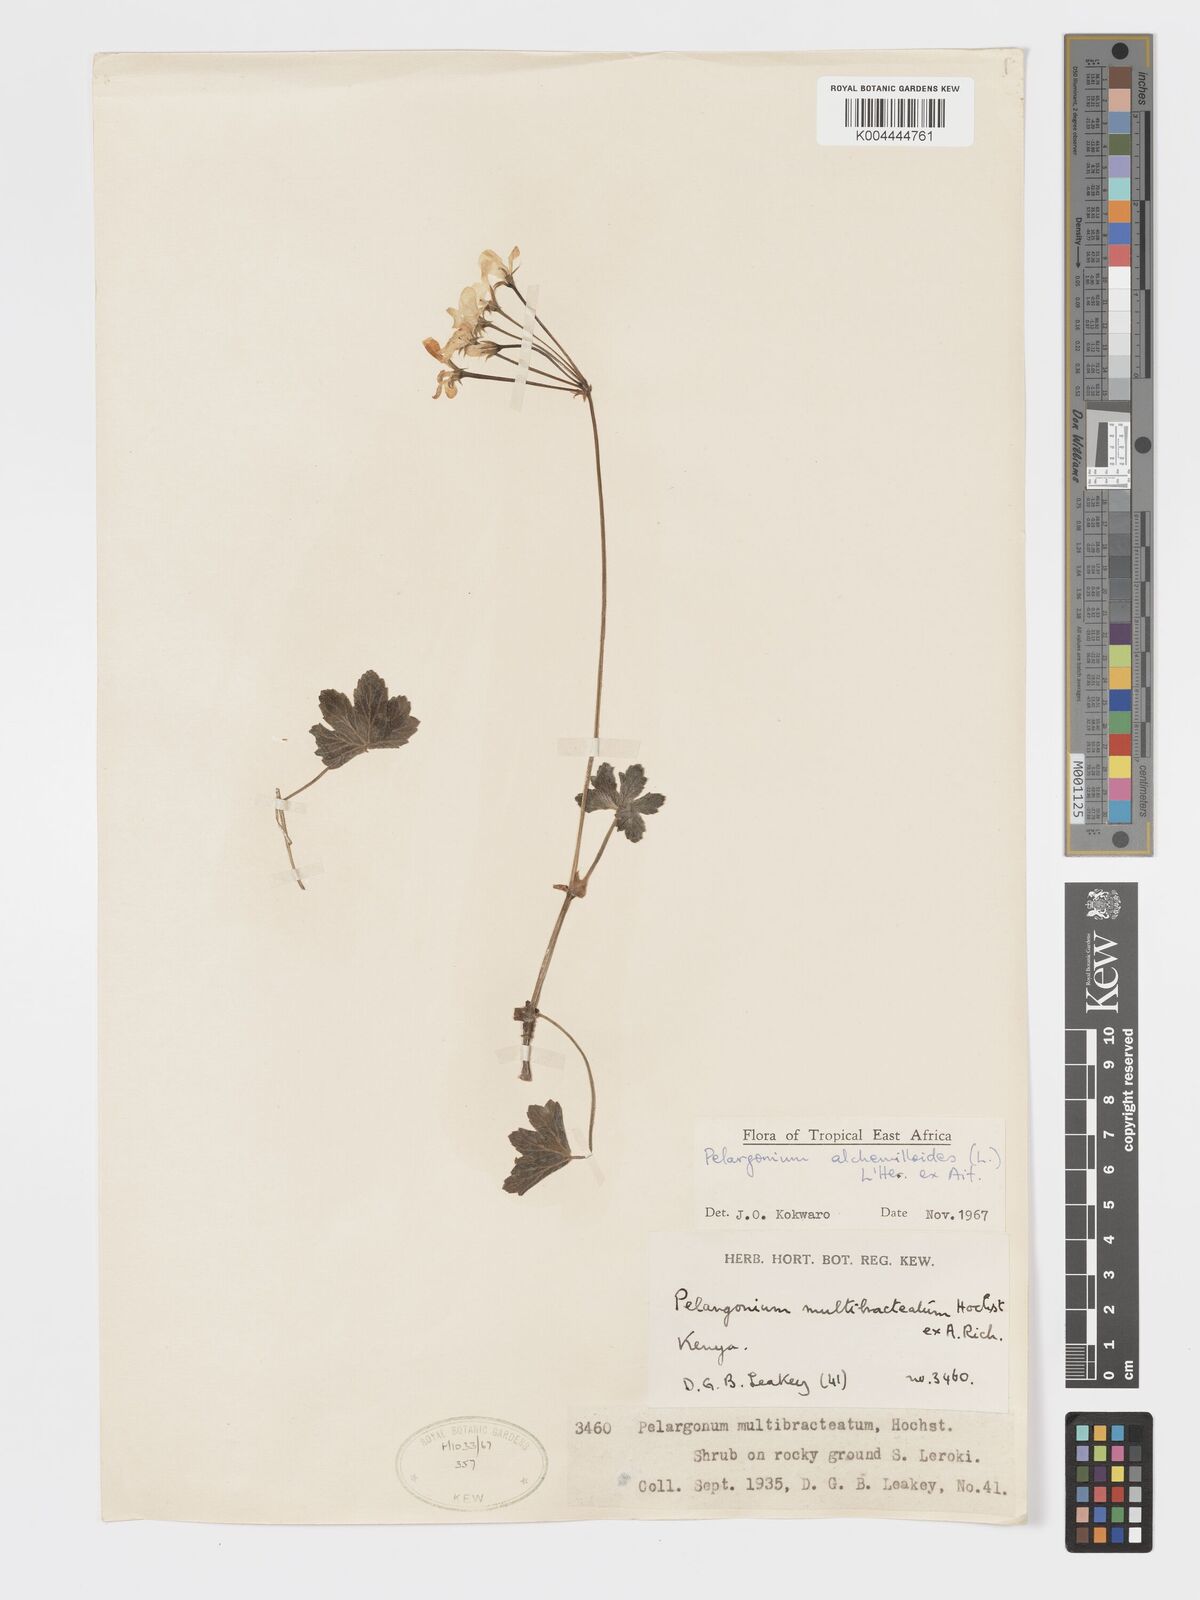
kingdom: Plantae
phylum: Tracheophyta
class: Magnoliopsida
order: Geraniales
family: Geraniaceae
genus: Pelargonium
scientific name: Pelargonium alchemilloides
